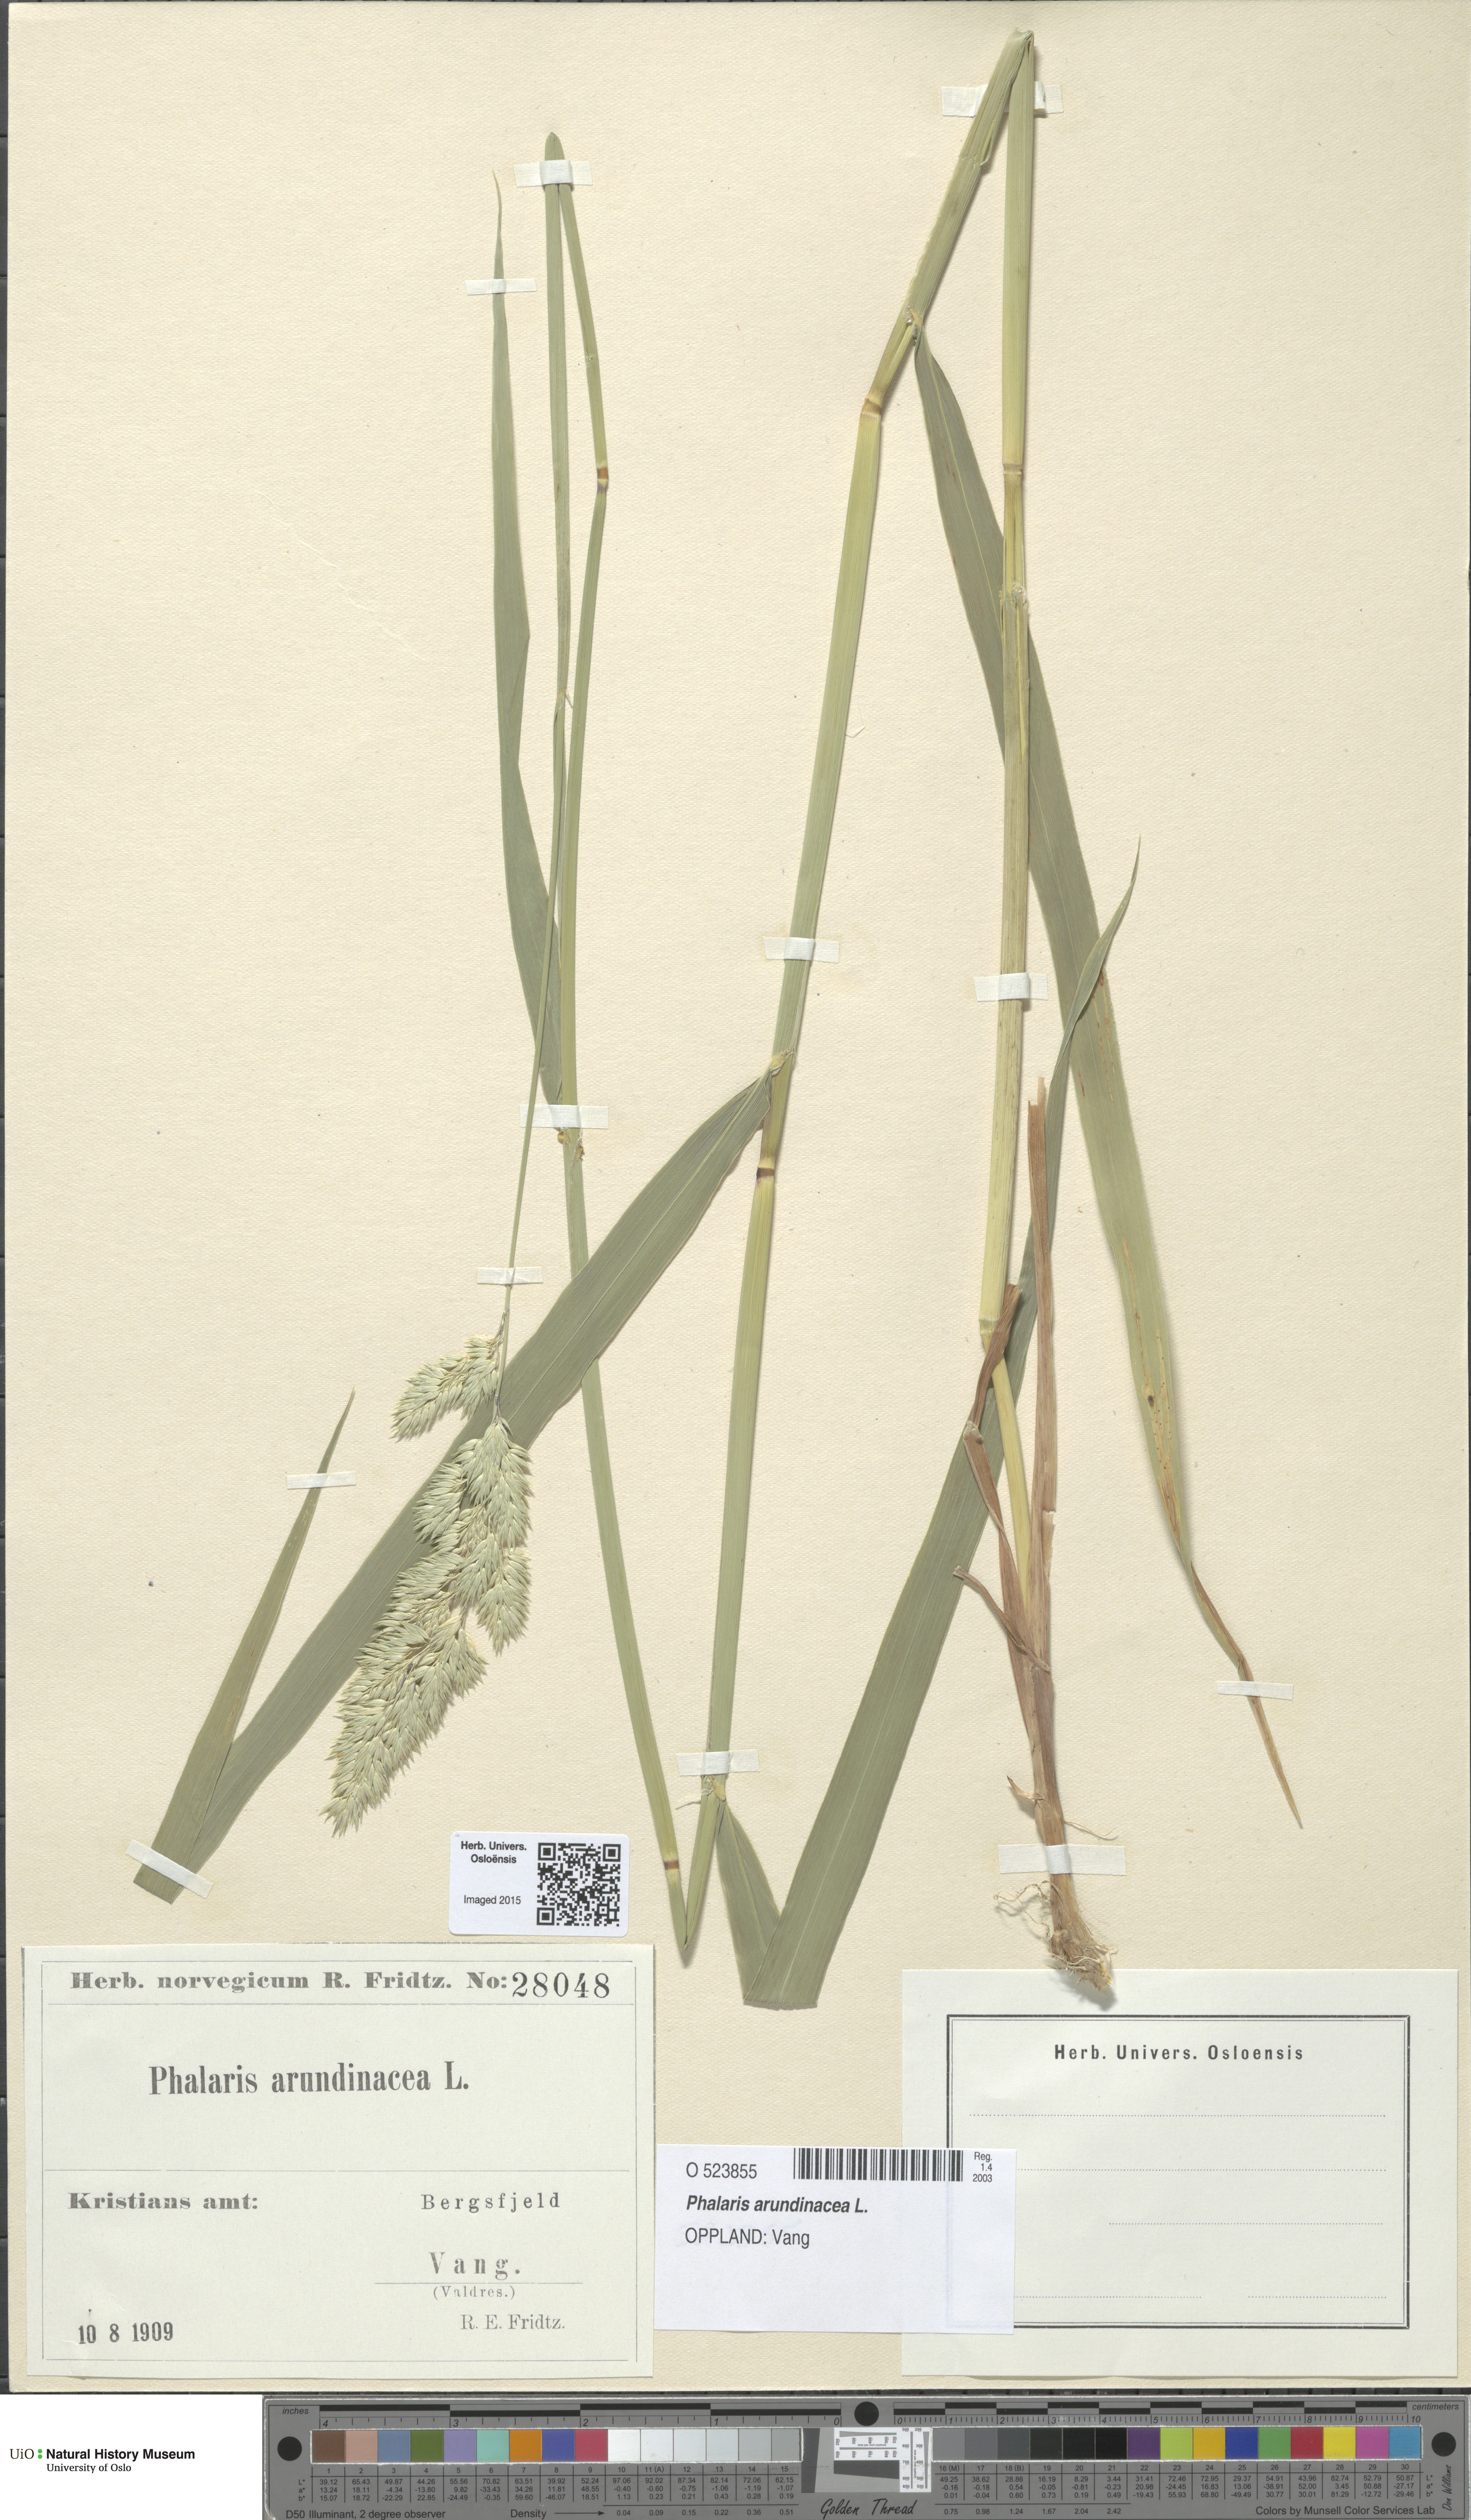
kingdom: Plantae
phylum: Tracheophyta
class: Liliopsida
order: Poales
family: Poaceae
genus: Phalaris
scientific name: Phalaris arundinacea
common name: Reed canary-grass
